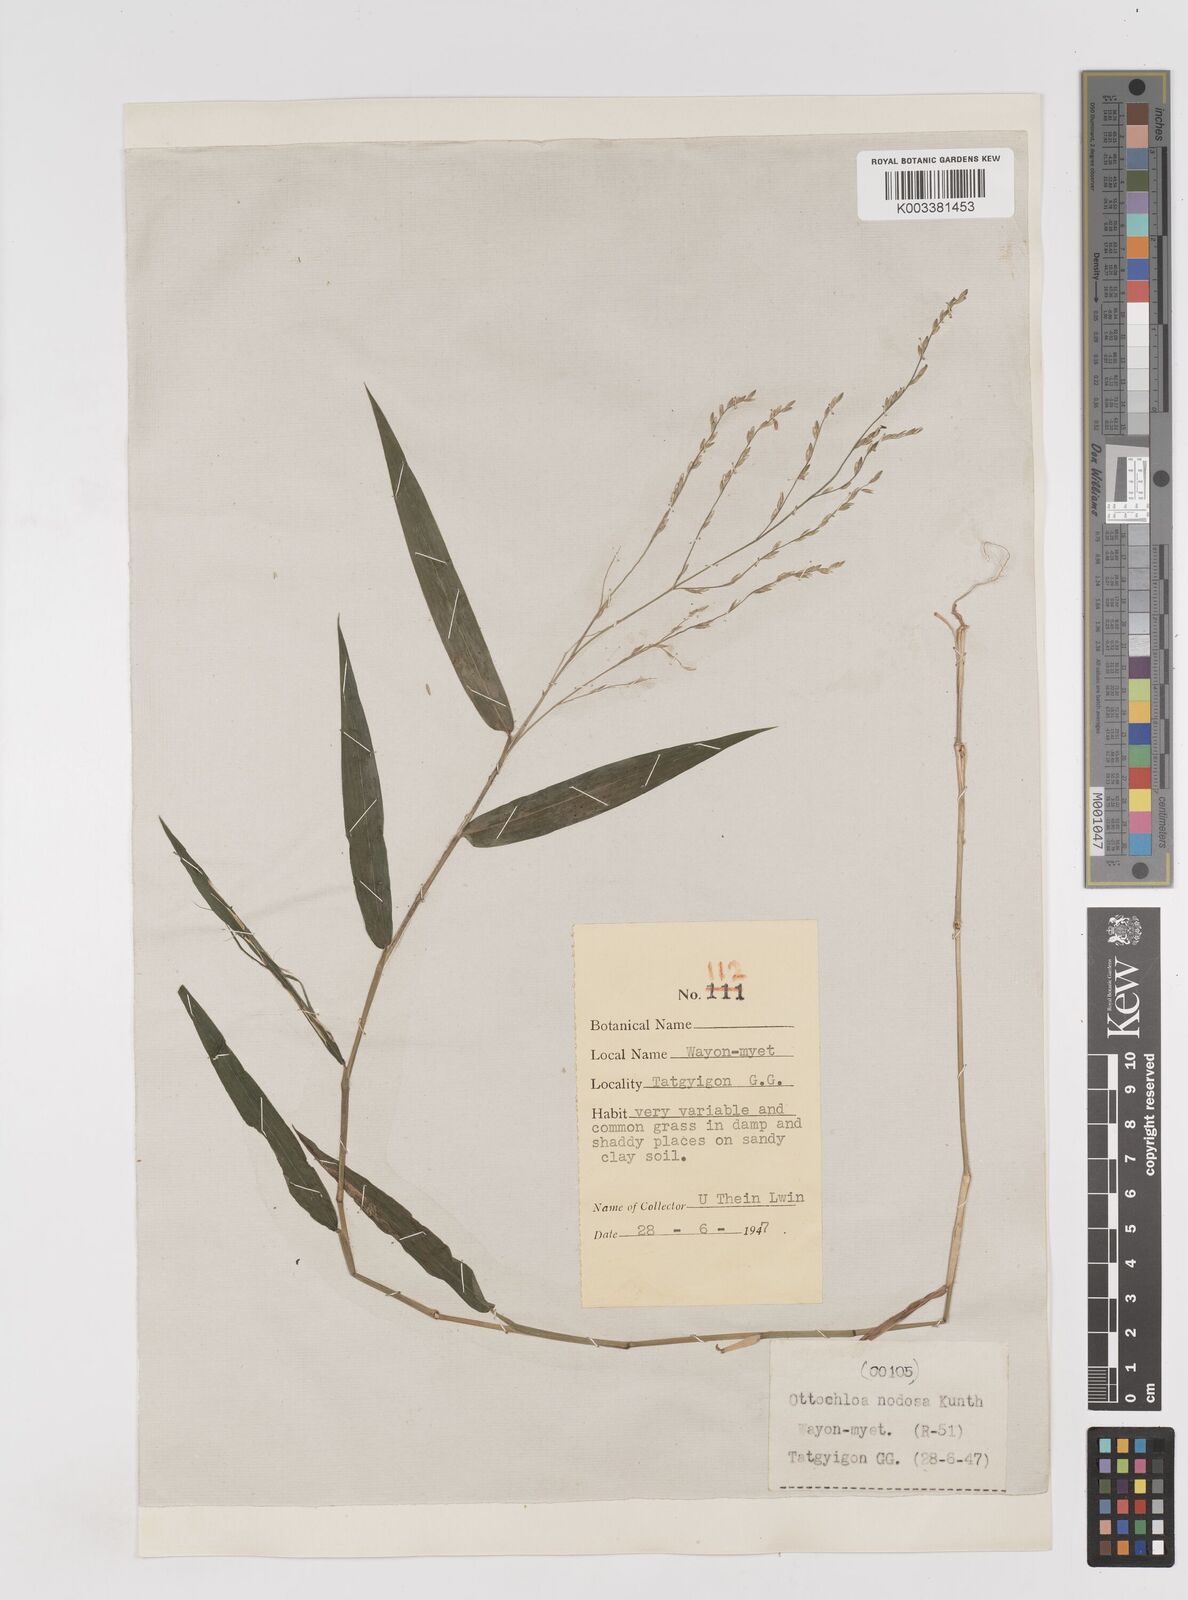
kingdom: Plantae
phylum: Tracheophyta
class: Liliopsida
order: Poales
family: Poaceae
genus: Ottochloa
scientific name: Ottochloa nodosa
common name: Slender-panic grass
